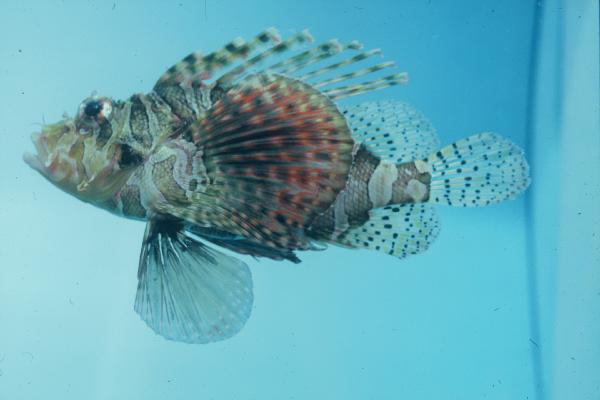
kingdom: Animalia
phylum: Chordata
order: Scorpaeniformes
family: Scorpaenidae
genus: Dendrochirus
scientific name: Dendrochirus zebra
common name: Zebra lionfish
